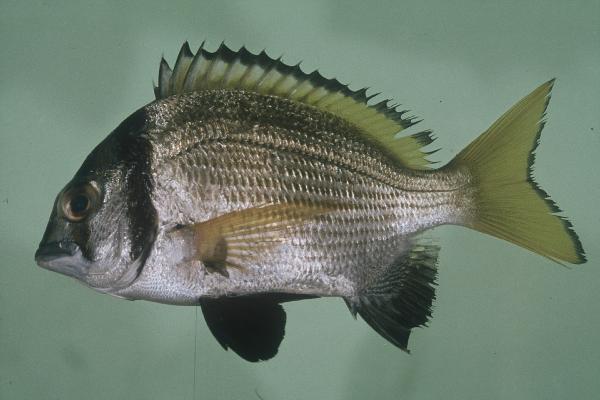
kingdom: Animalia
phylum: Chordata
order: Perciformes
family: Sparidae
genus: Acanthopagrus
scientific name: Acanthopagrus bifasciatus
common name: Twobar seabream
